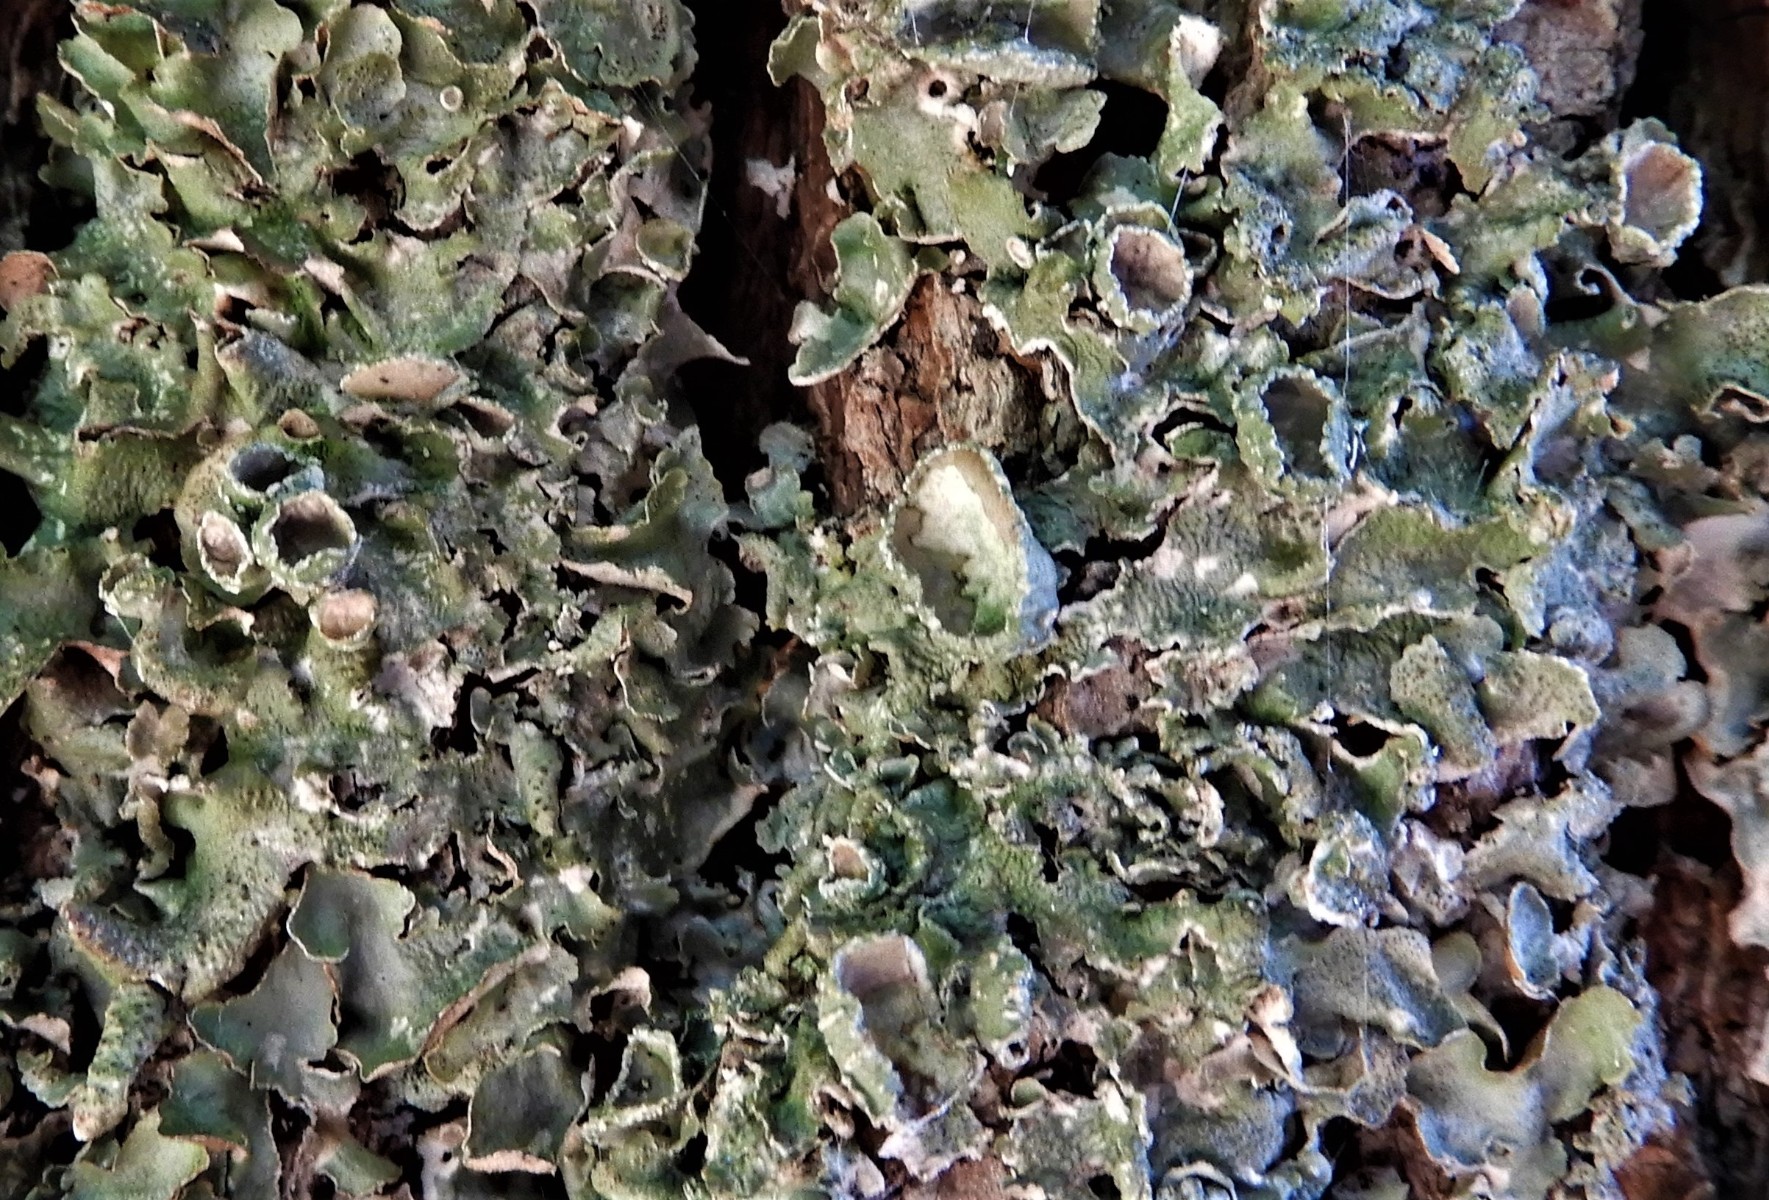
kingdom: Fungi
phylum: Ascomycota
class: Lecanoromycetes
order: Lecanorales
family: Parmeliaceae
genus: Pleurosticta
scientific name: Pleurosticta acetabulum
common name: stor skållav
